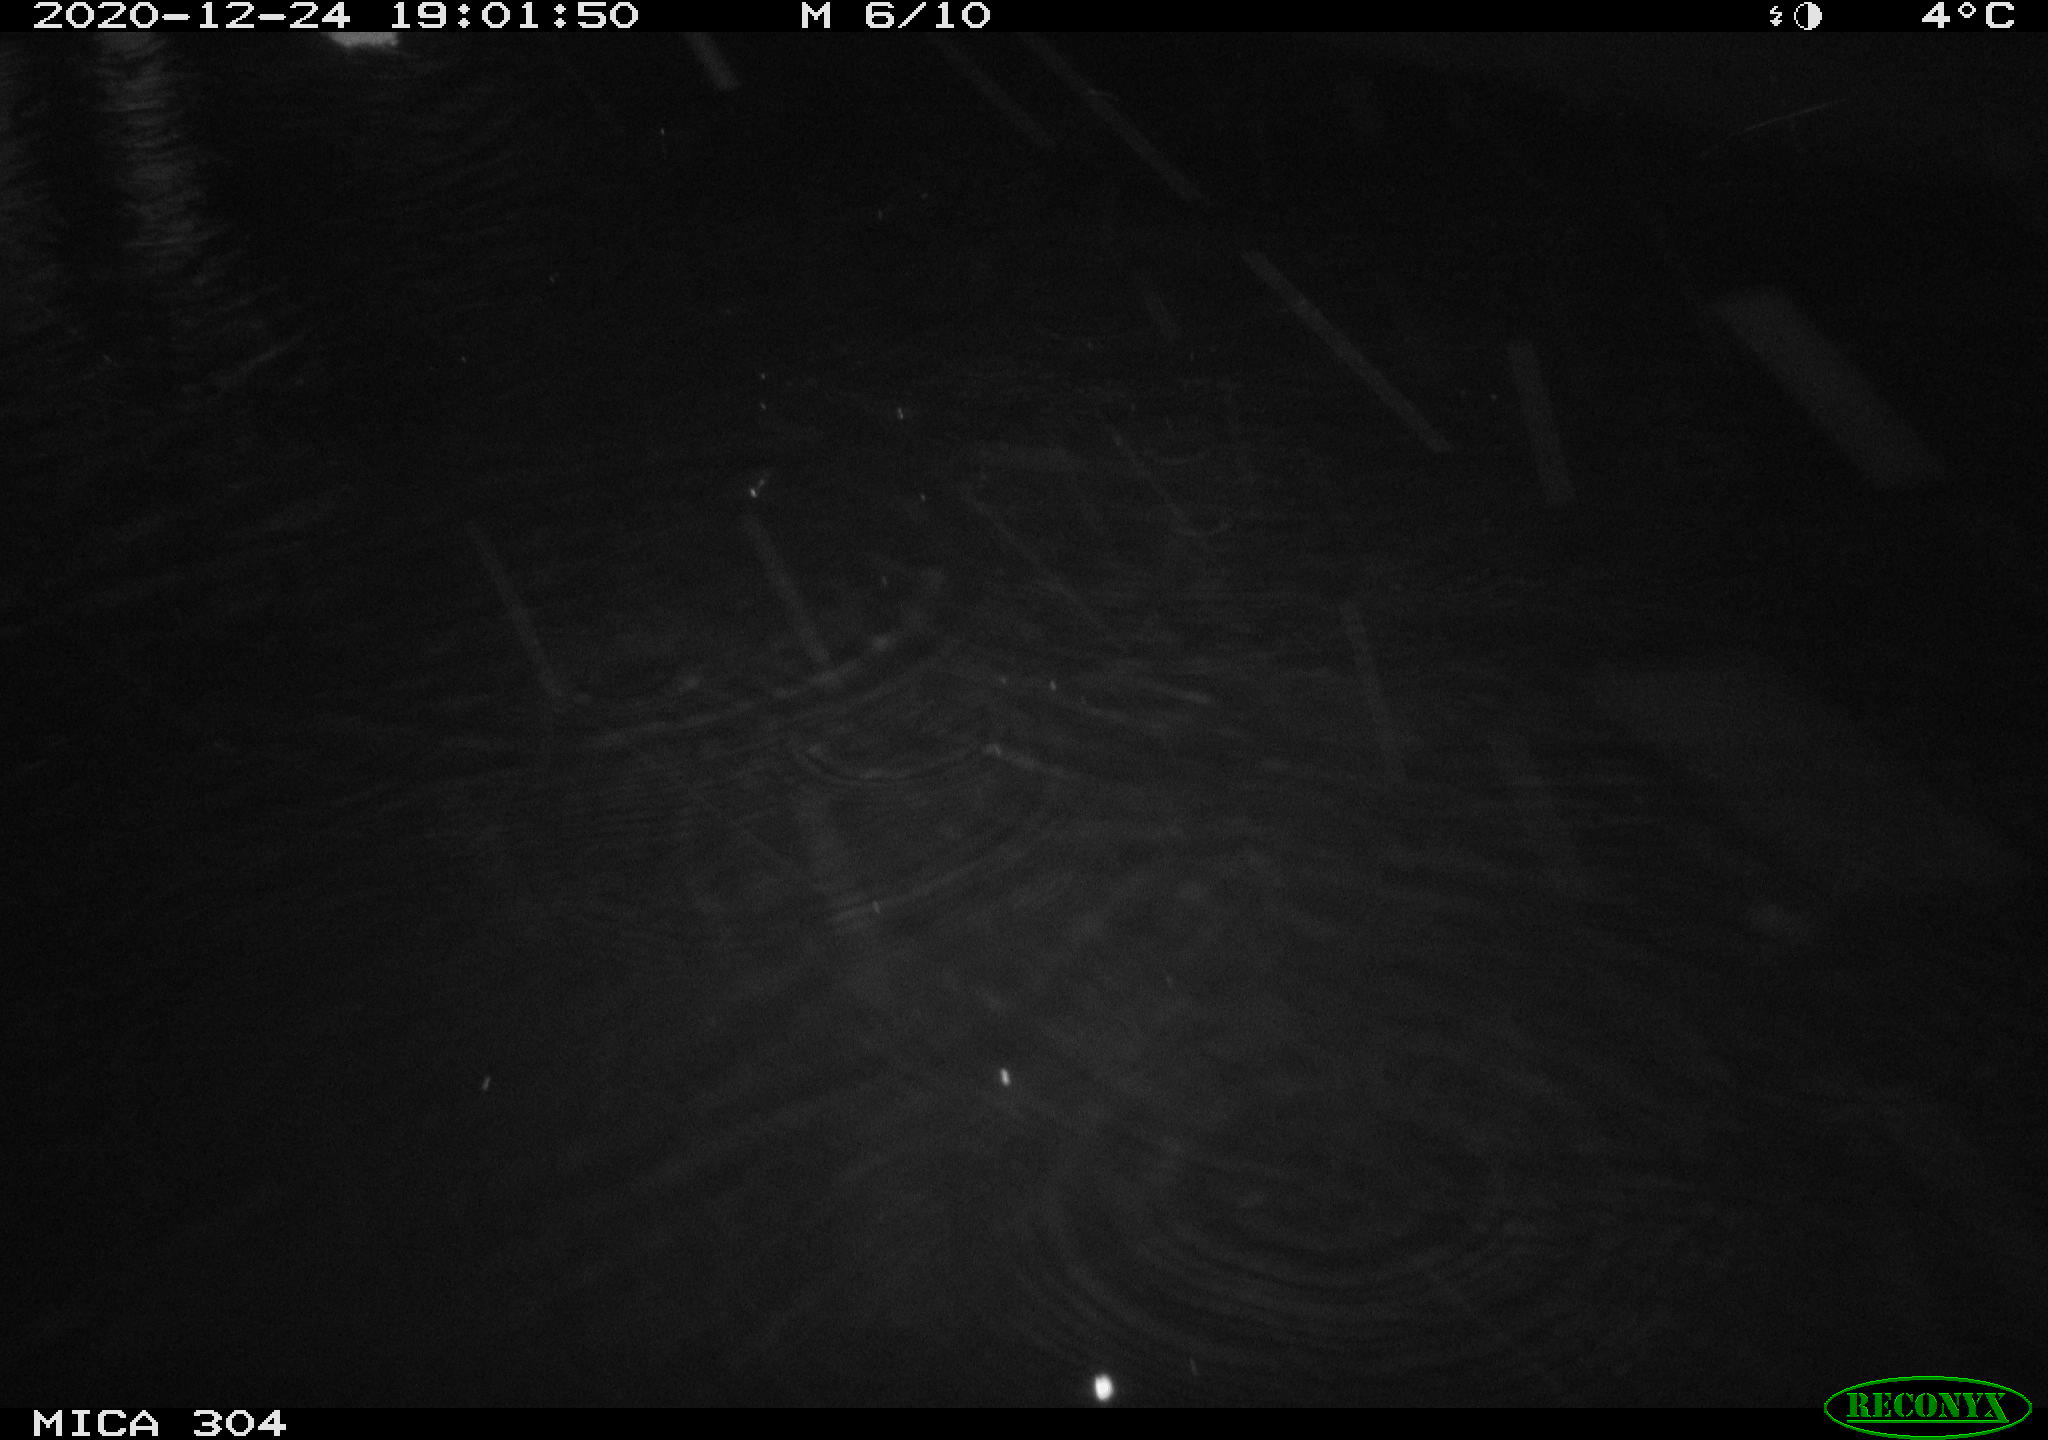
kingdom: Animalia
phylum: Chordata
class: Mammalia
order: Rodentia
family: Muridae
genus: Rattus
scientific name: Rattus norvegicus
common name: Brown rat
